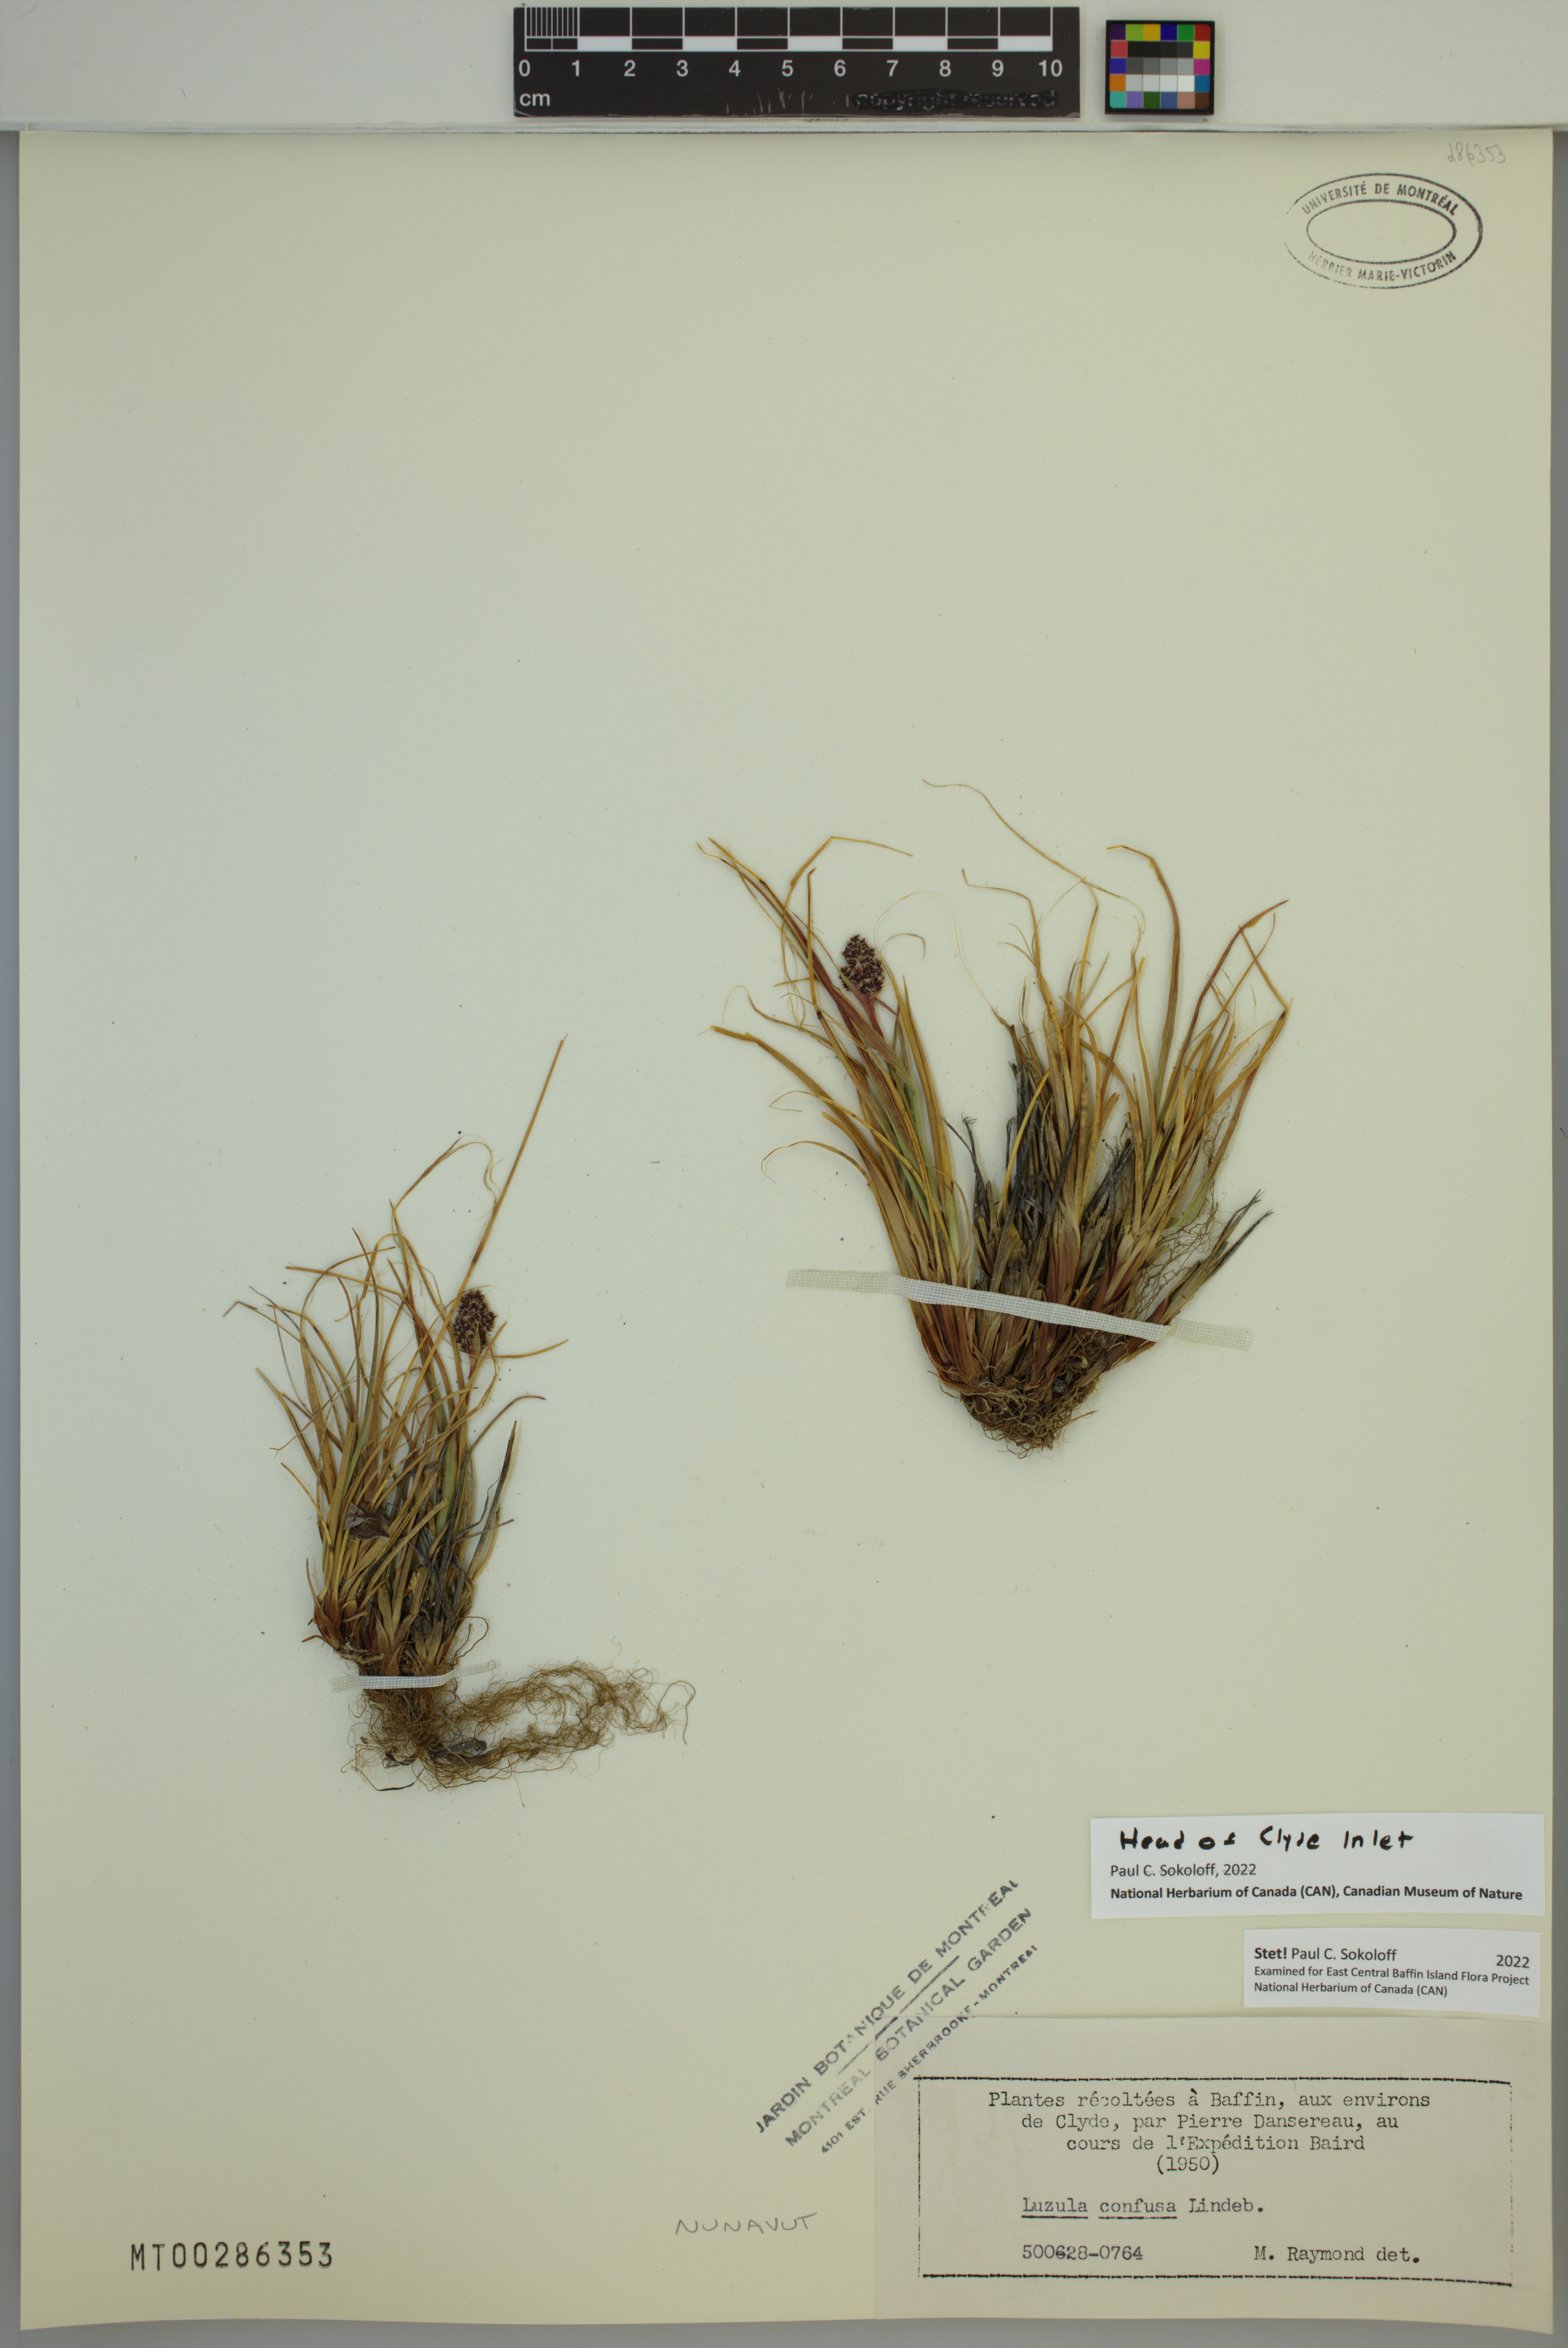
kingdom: Plantae
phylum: Tracheophyta
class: Liliopsida
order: Poales
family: Juncaceae
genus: Luzula
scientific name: Luzula confusa
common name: Northern wood rush
